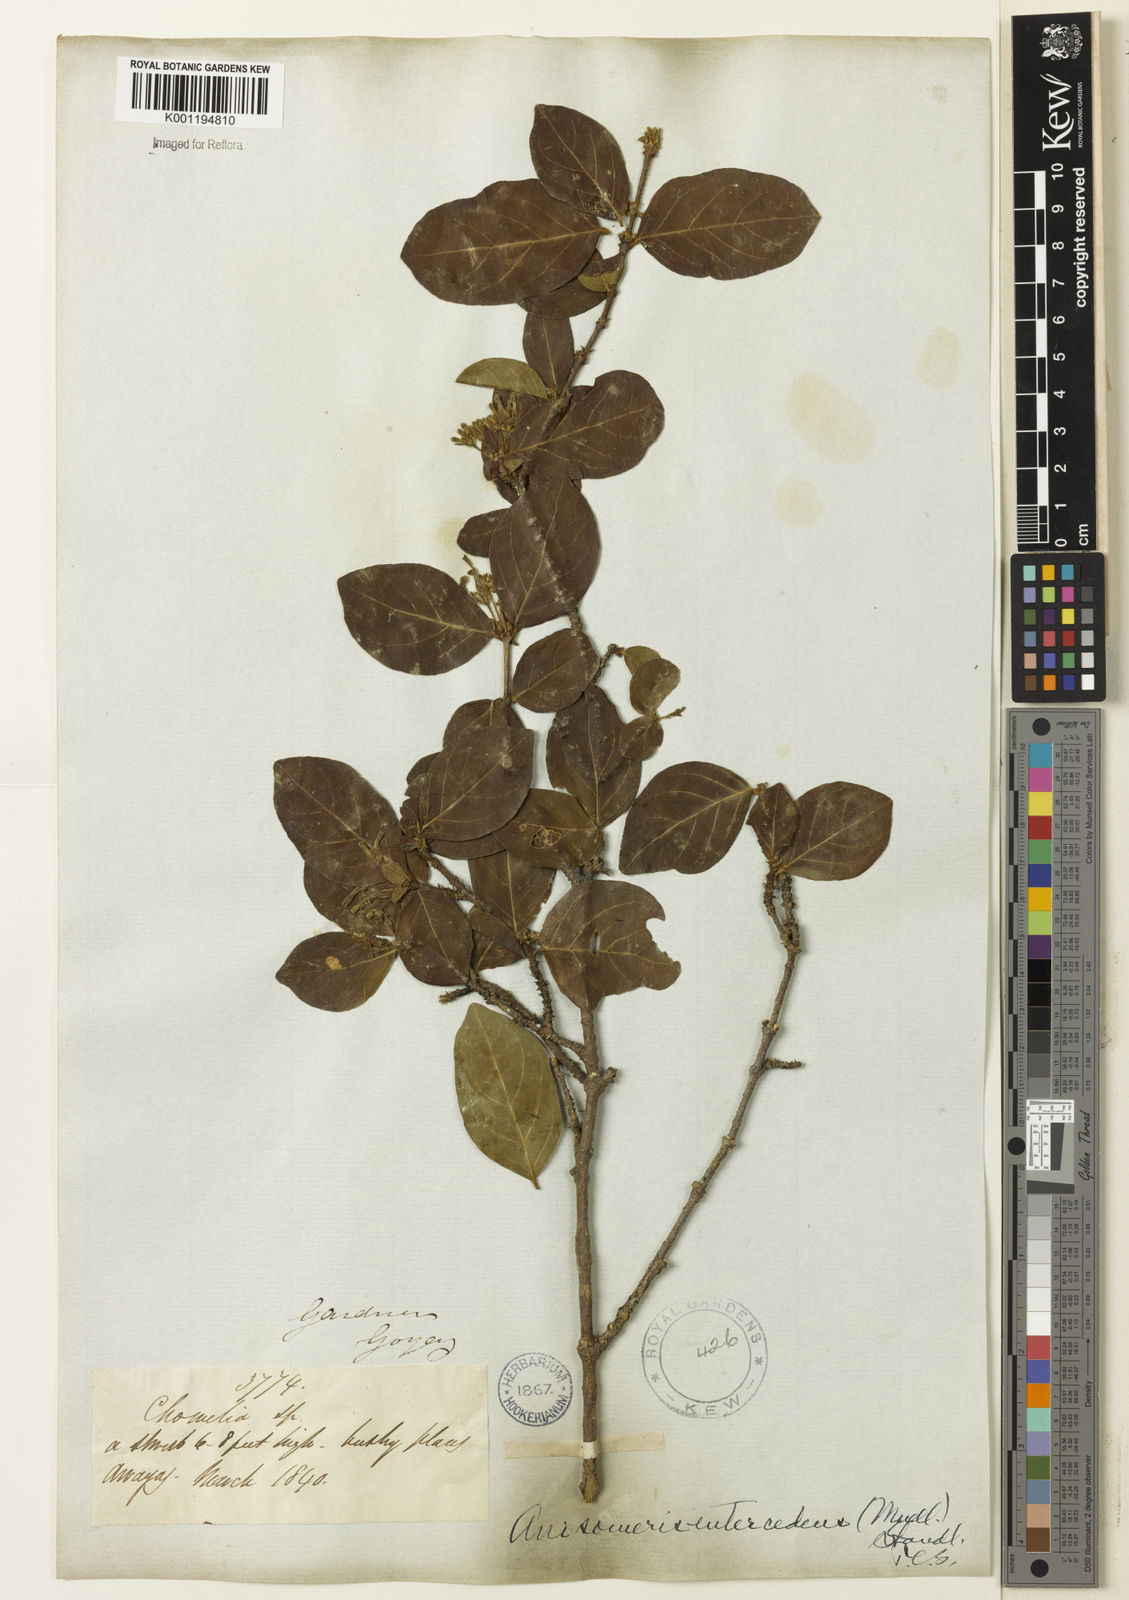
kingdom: Plantae
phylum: Tracheophyta
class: Magnoliopsida
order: Gentianales
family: Rubiaceae
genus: Chomelia
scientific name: Chomelia
